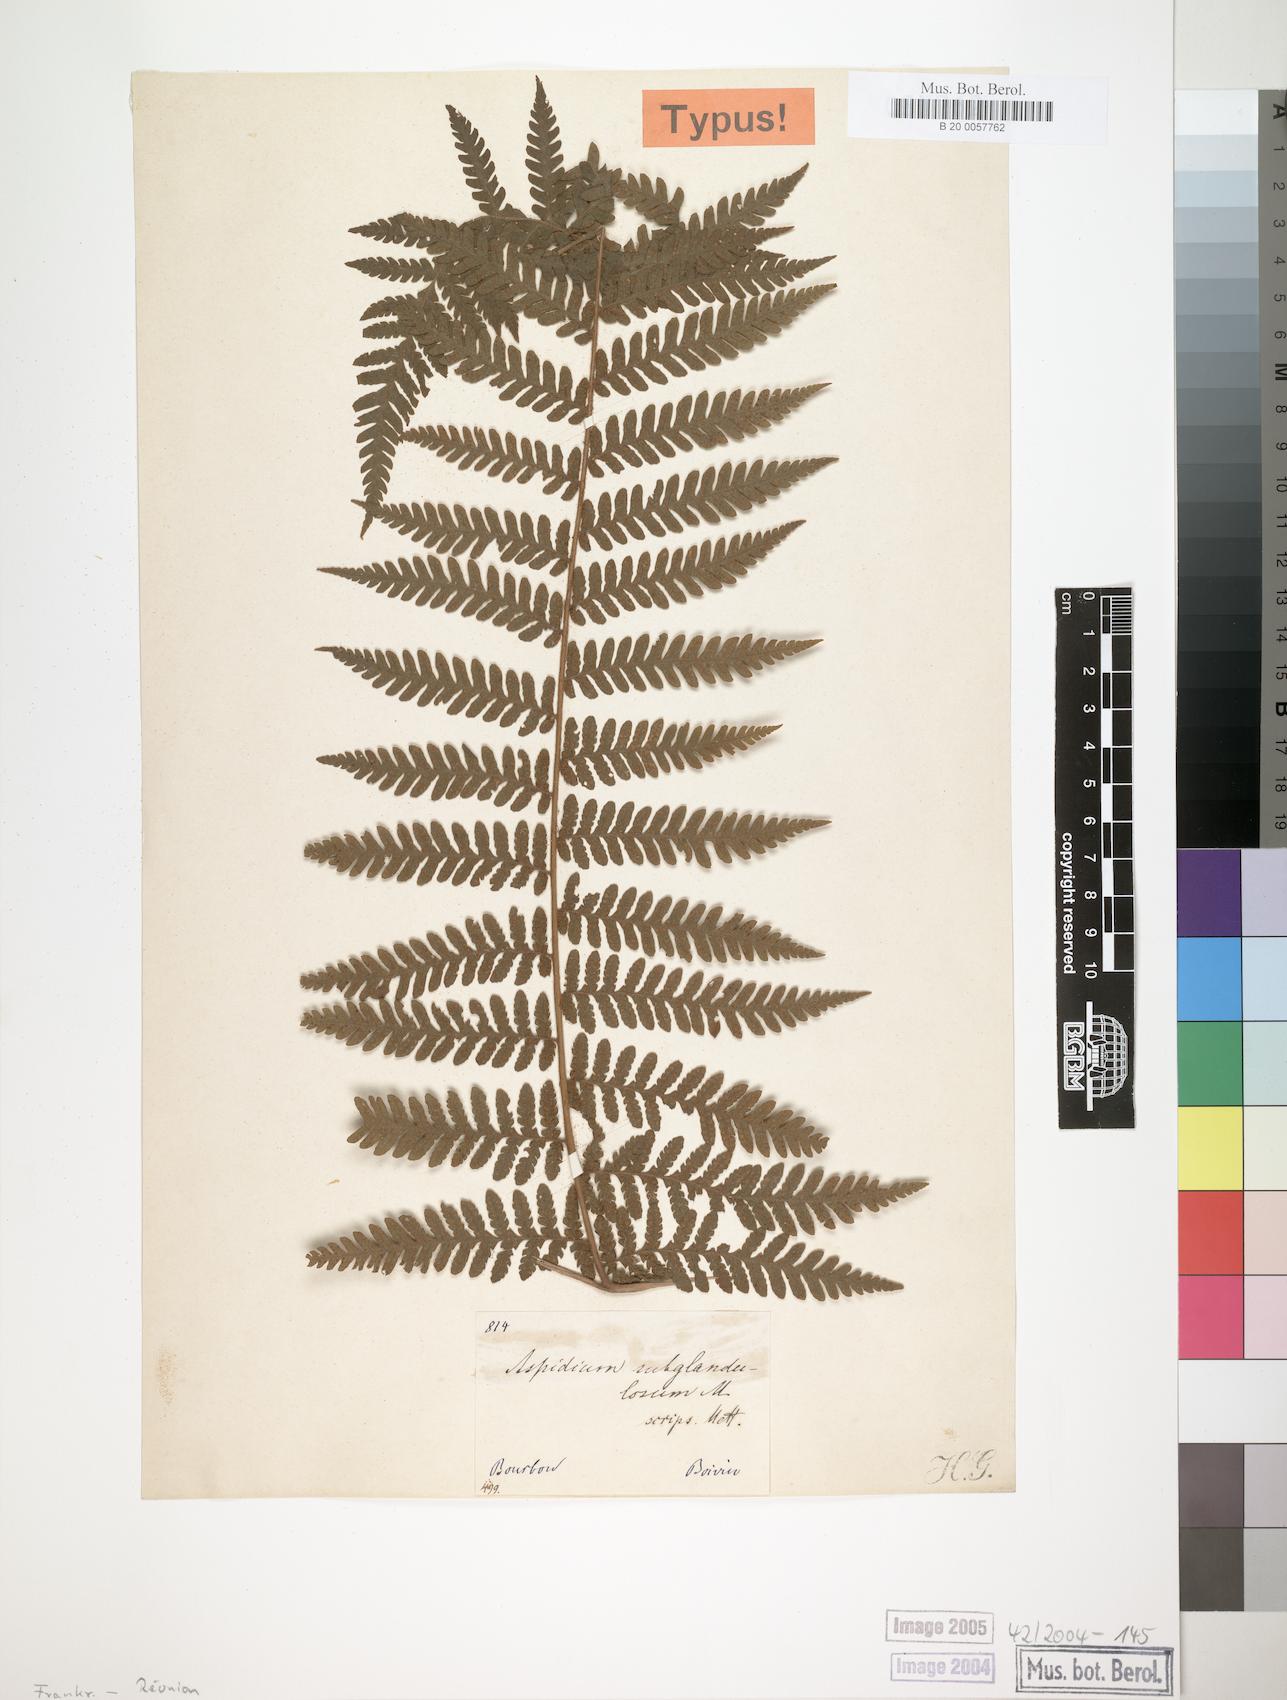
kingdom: Plantae
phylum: Tracheophyta
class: Polypodiopsida
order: Polypodiales
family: Thelypteridaceae
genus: Pseudophegopteris
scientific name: Pseudophegopteris aubertii
